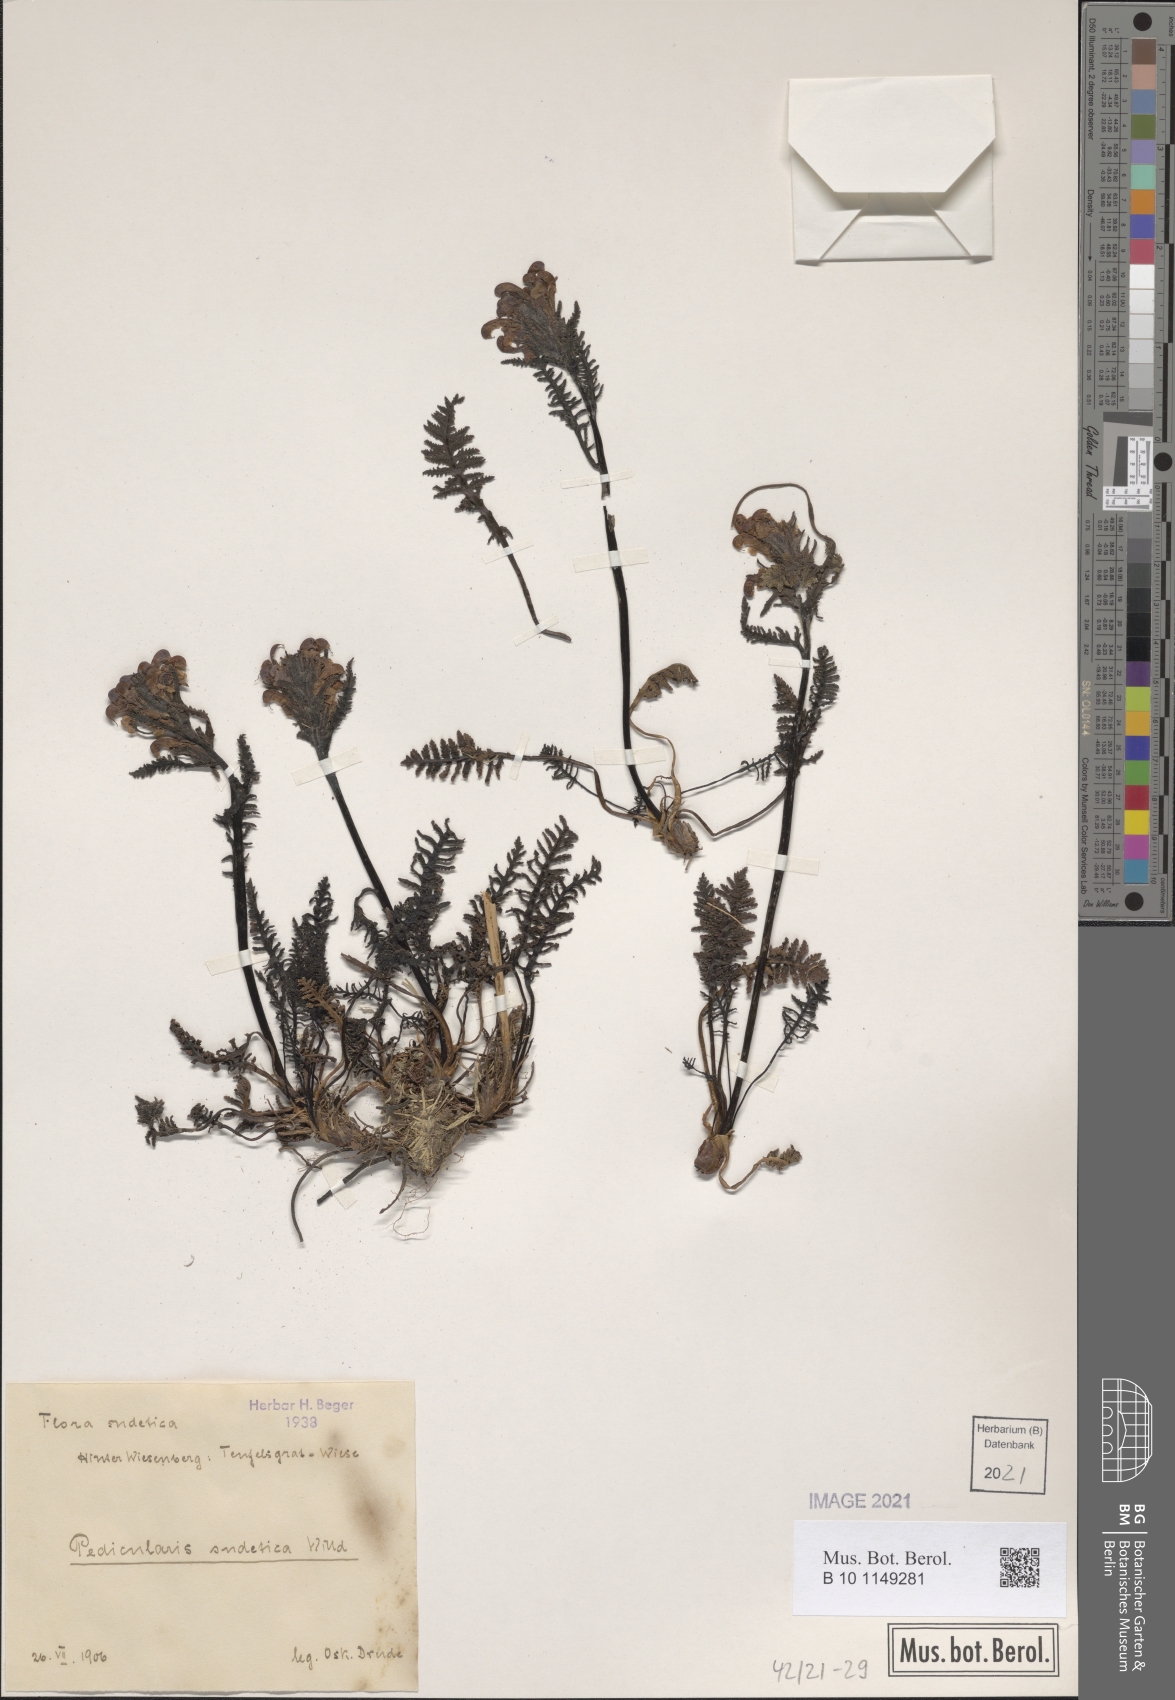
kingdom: Plantae
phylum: Tracheophyta
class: Magnoliopsida
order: Lamiales
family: Orobanchaceae
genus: Pedicularis
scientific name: Pedicularis sudetica
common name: Sudeten lousewort
